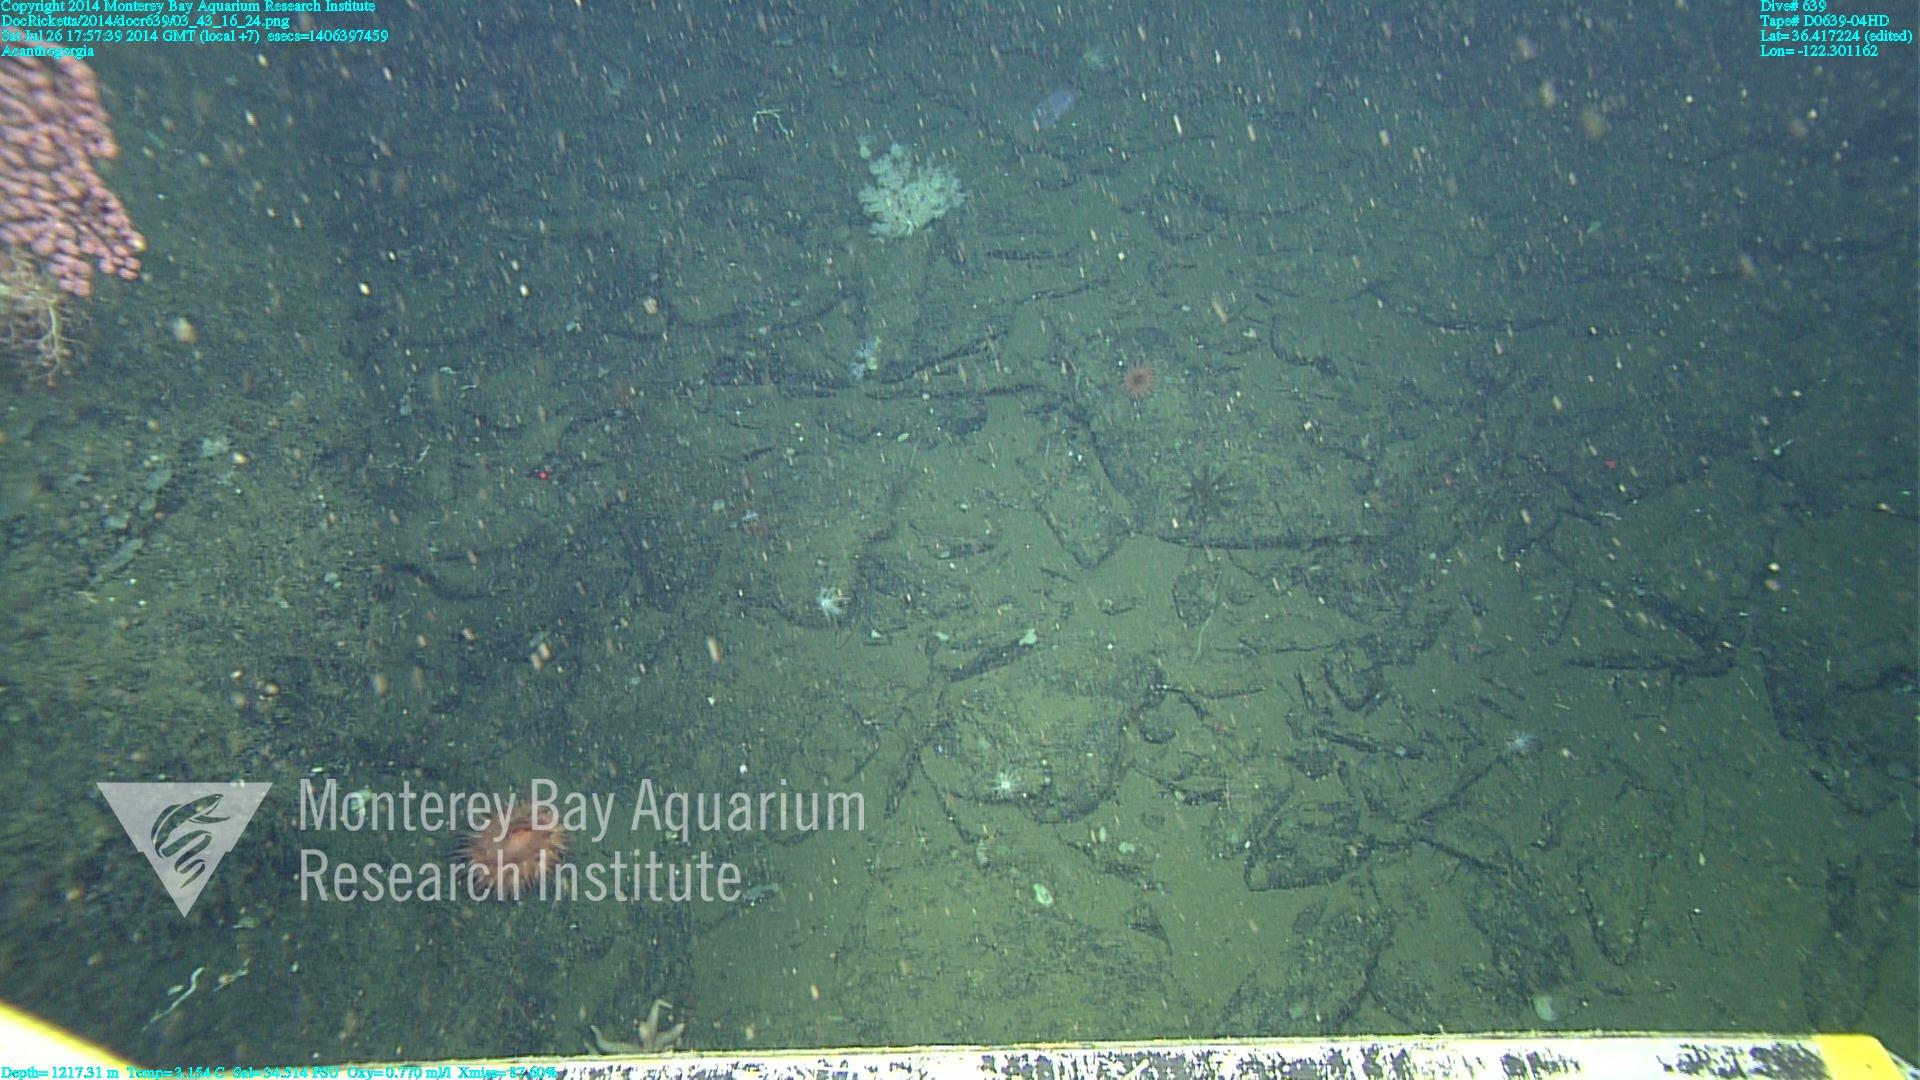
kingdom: Animalia
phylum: Cnidaria
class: Anthozoa
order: Malacalcyonacea
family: Paramuriceidae
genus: Acanthogorgia
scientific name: Acanthogorgia
